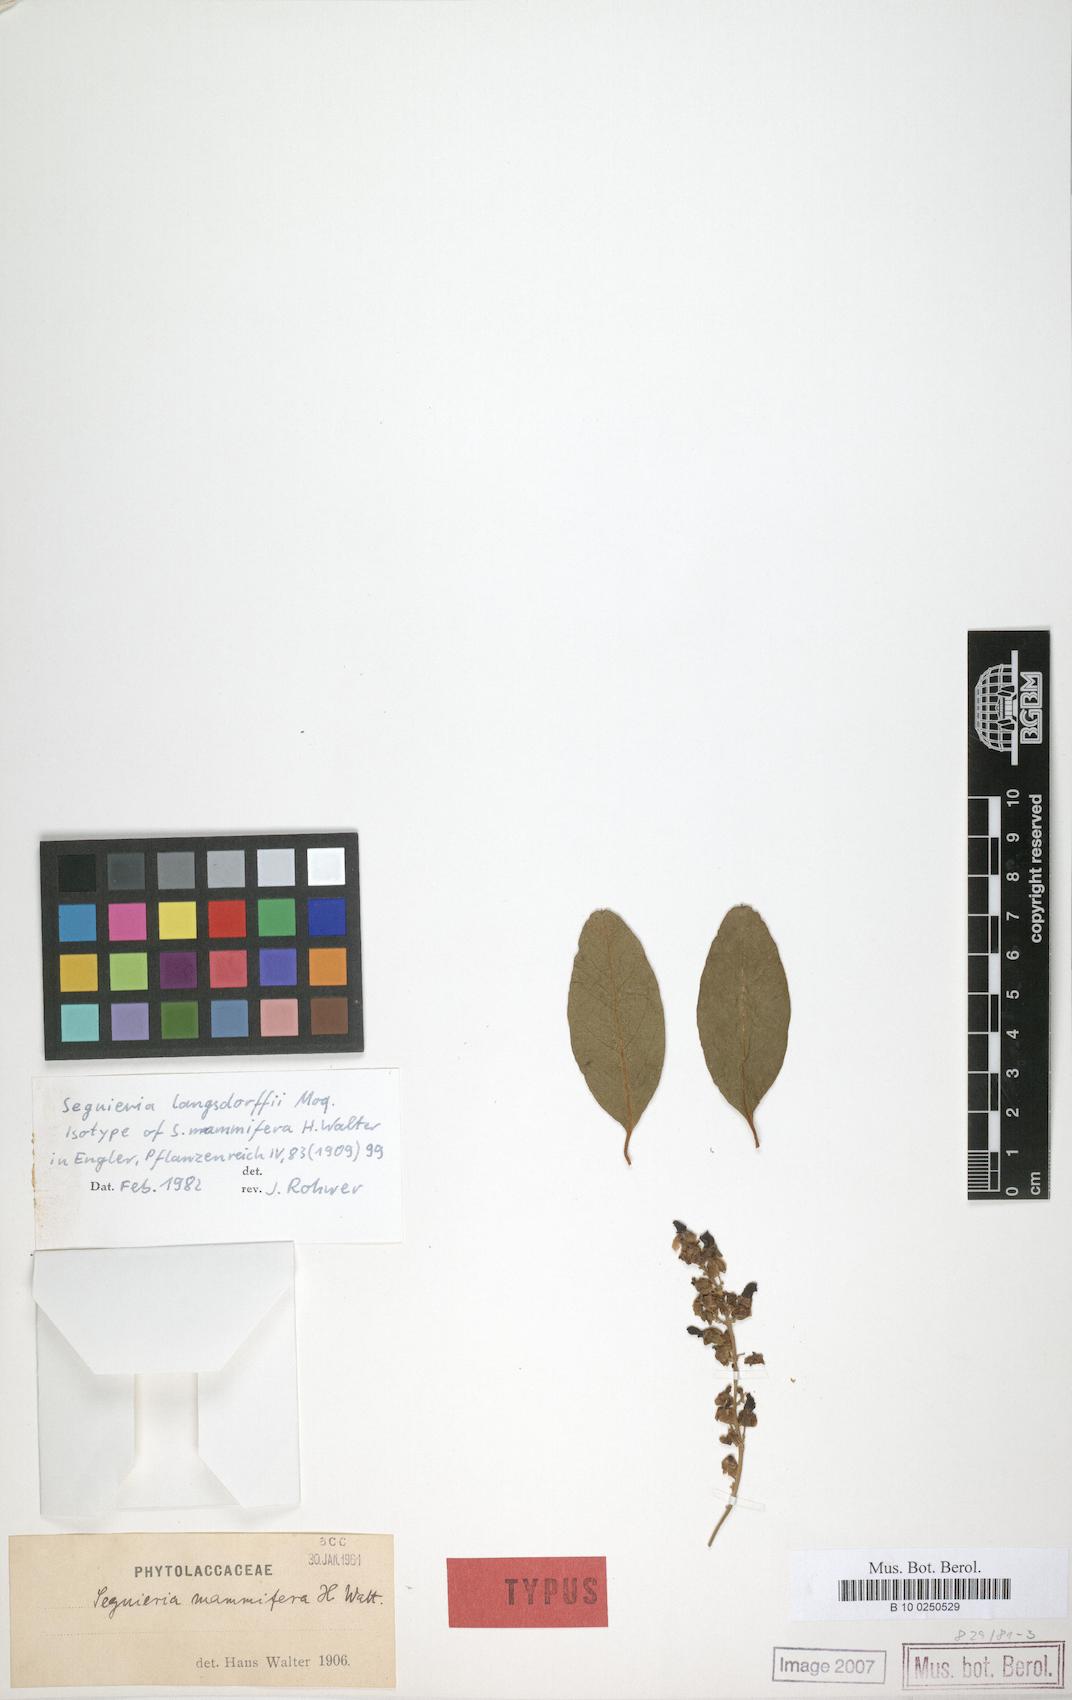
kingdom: Plantae
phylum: Tracheophyta
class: Magnoliopsida
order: Caryophyllales
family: Phytolaccaceae
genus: Seguieria
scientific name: Seguieria langsdorffii
